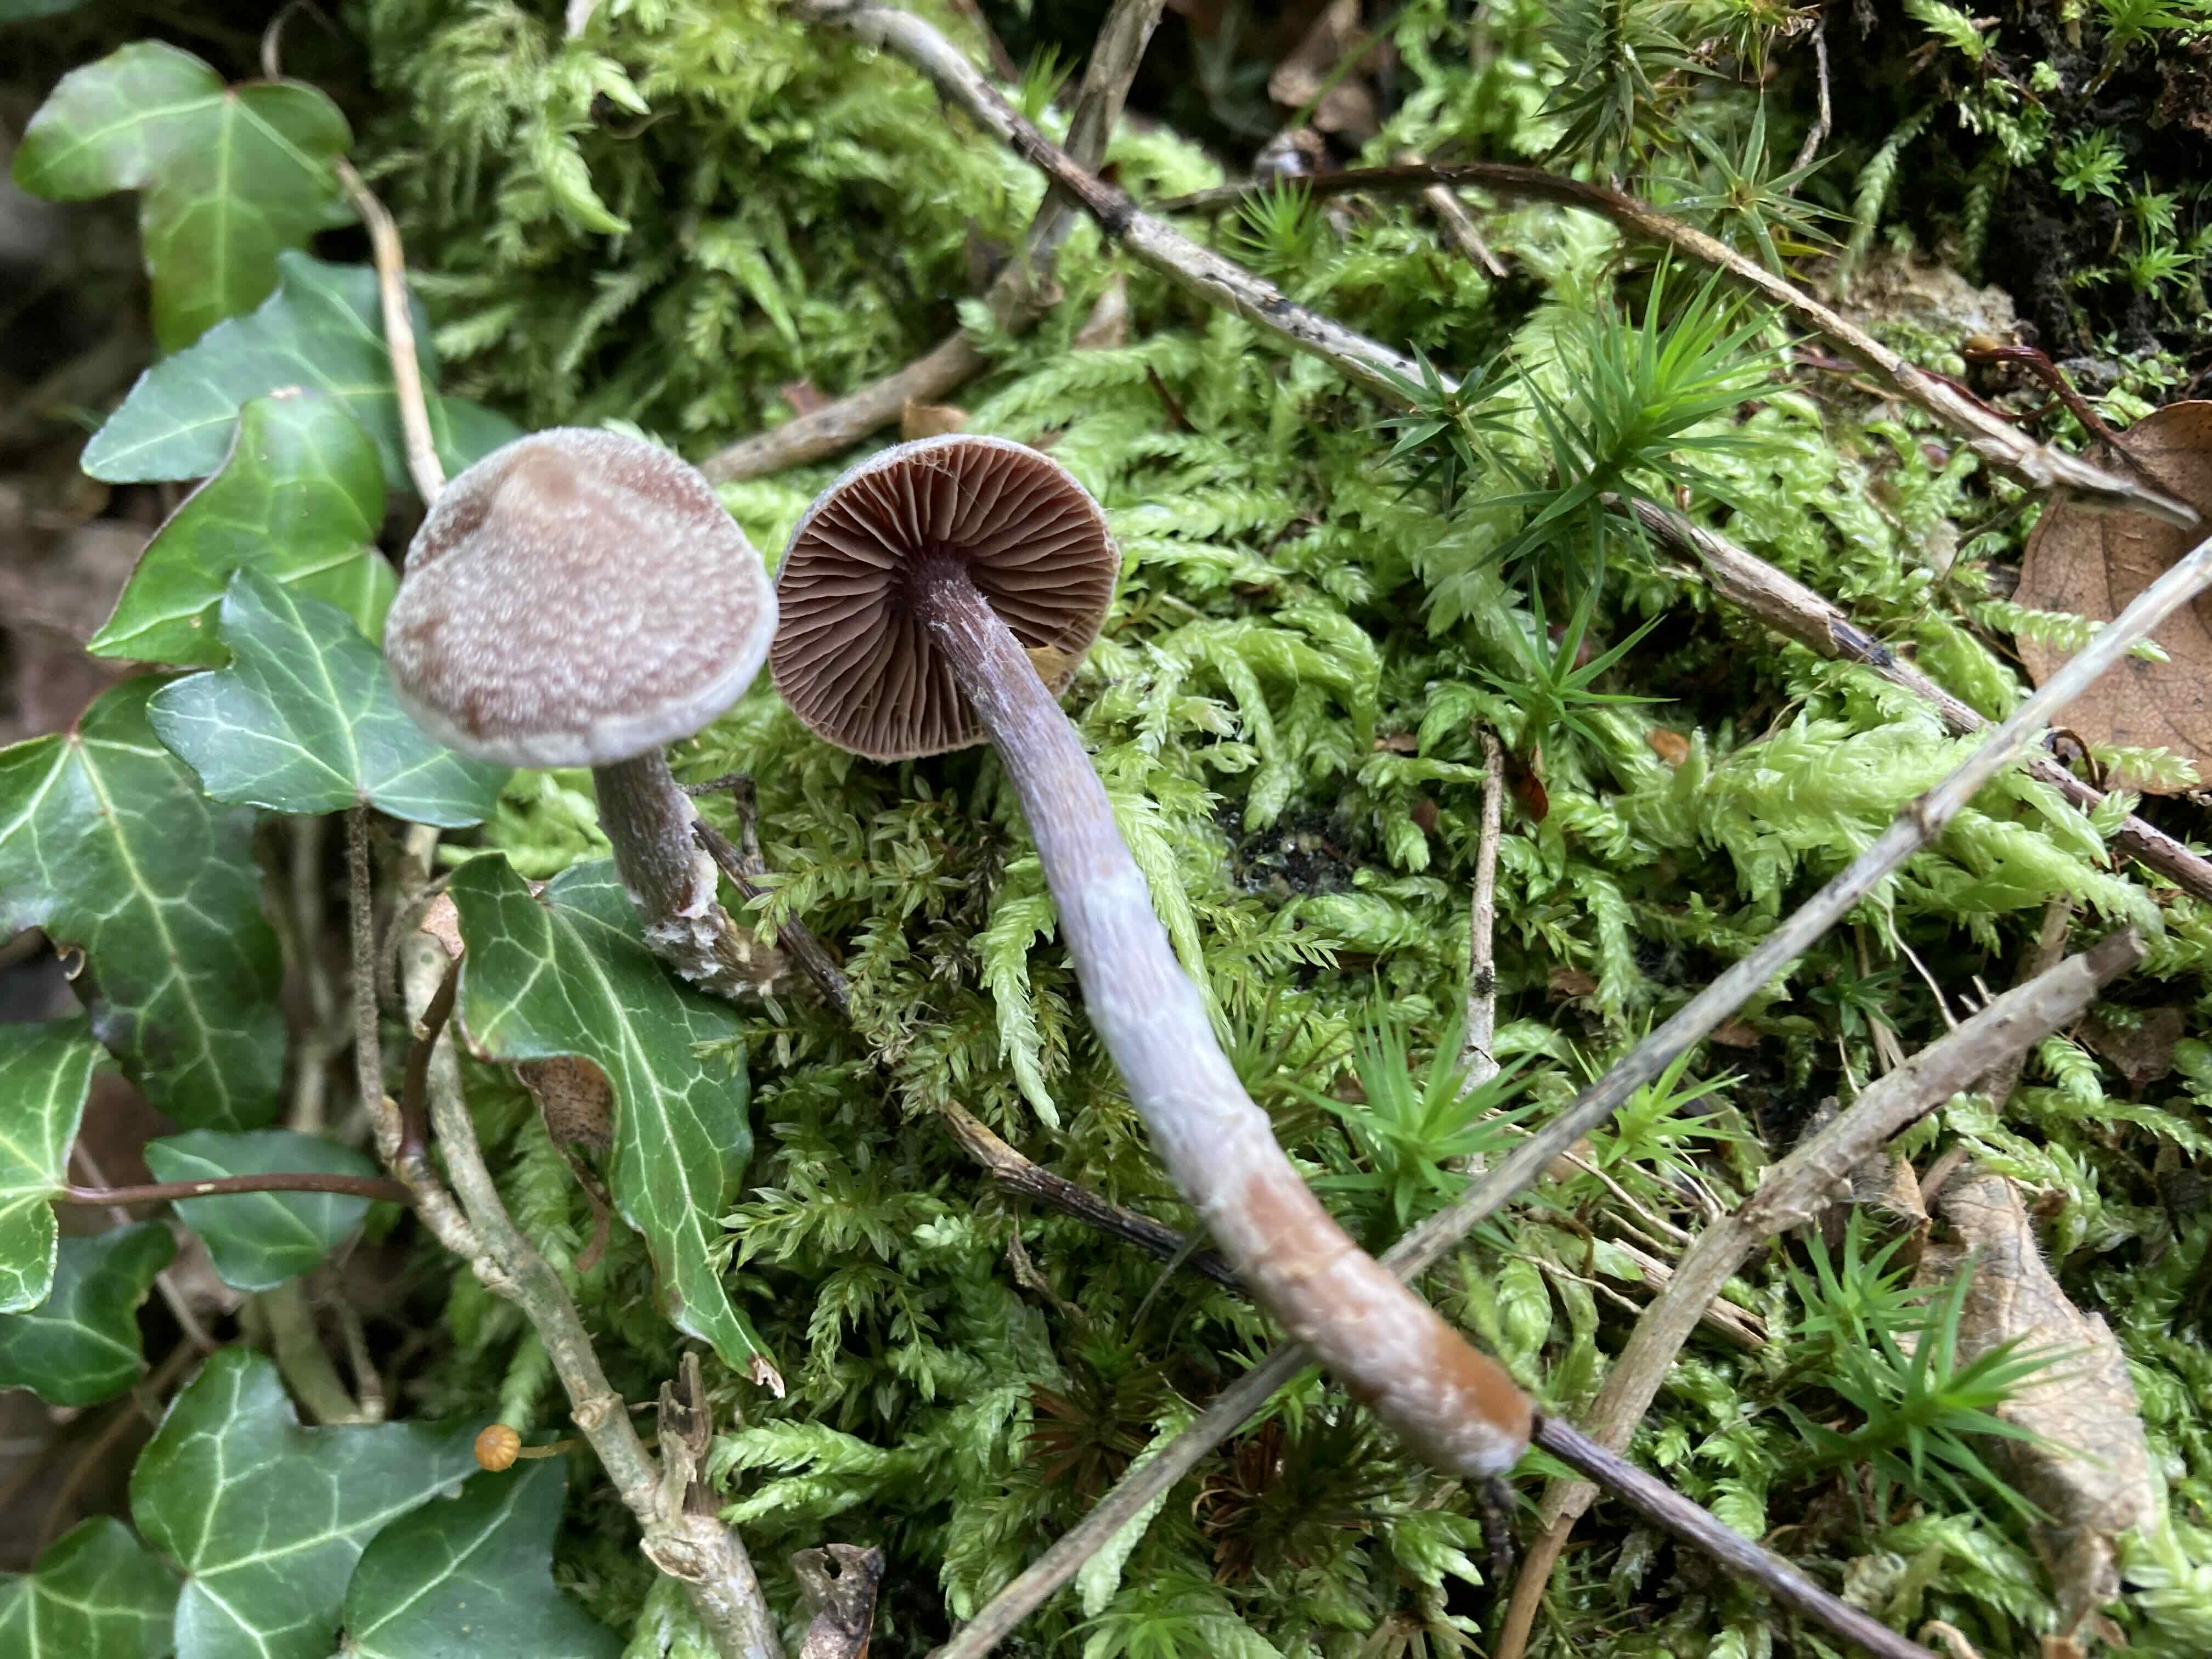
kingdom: Fungi
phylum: Basidiomycota
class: Agaricomycetes
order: Agaricales
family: Cortinariaceae
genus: Cortinarius
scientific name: Cortinarius
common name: pelargonie-slørhat
